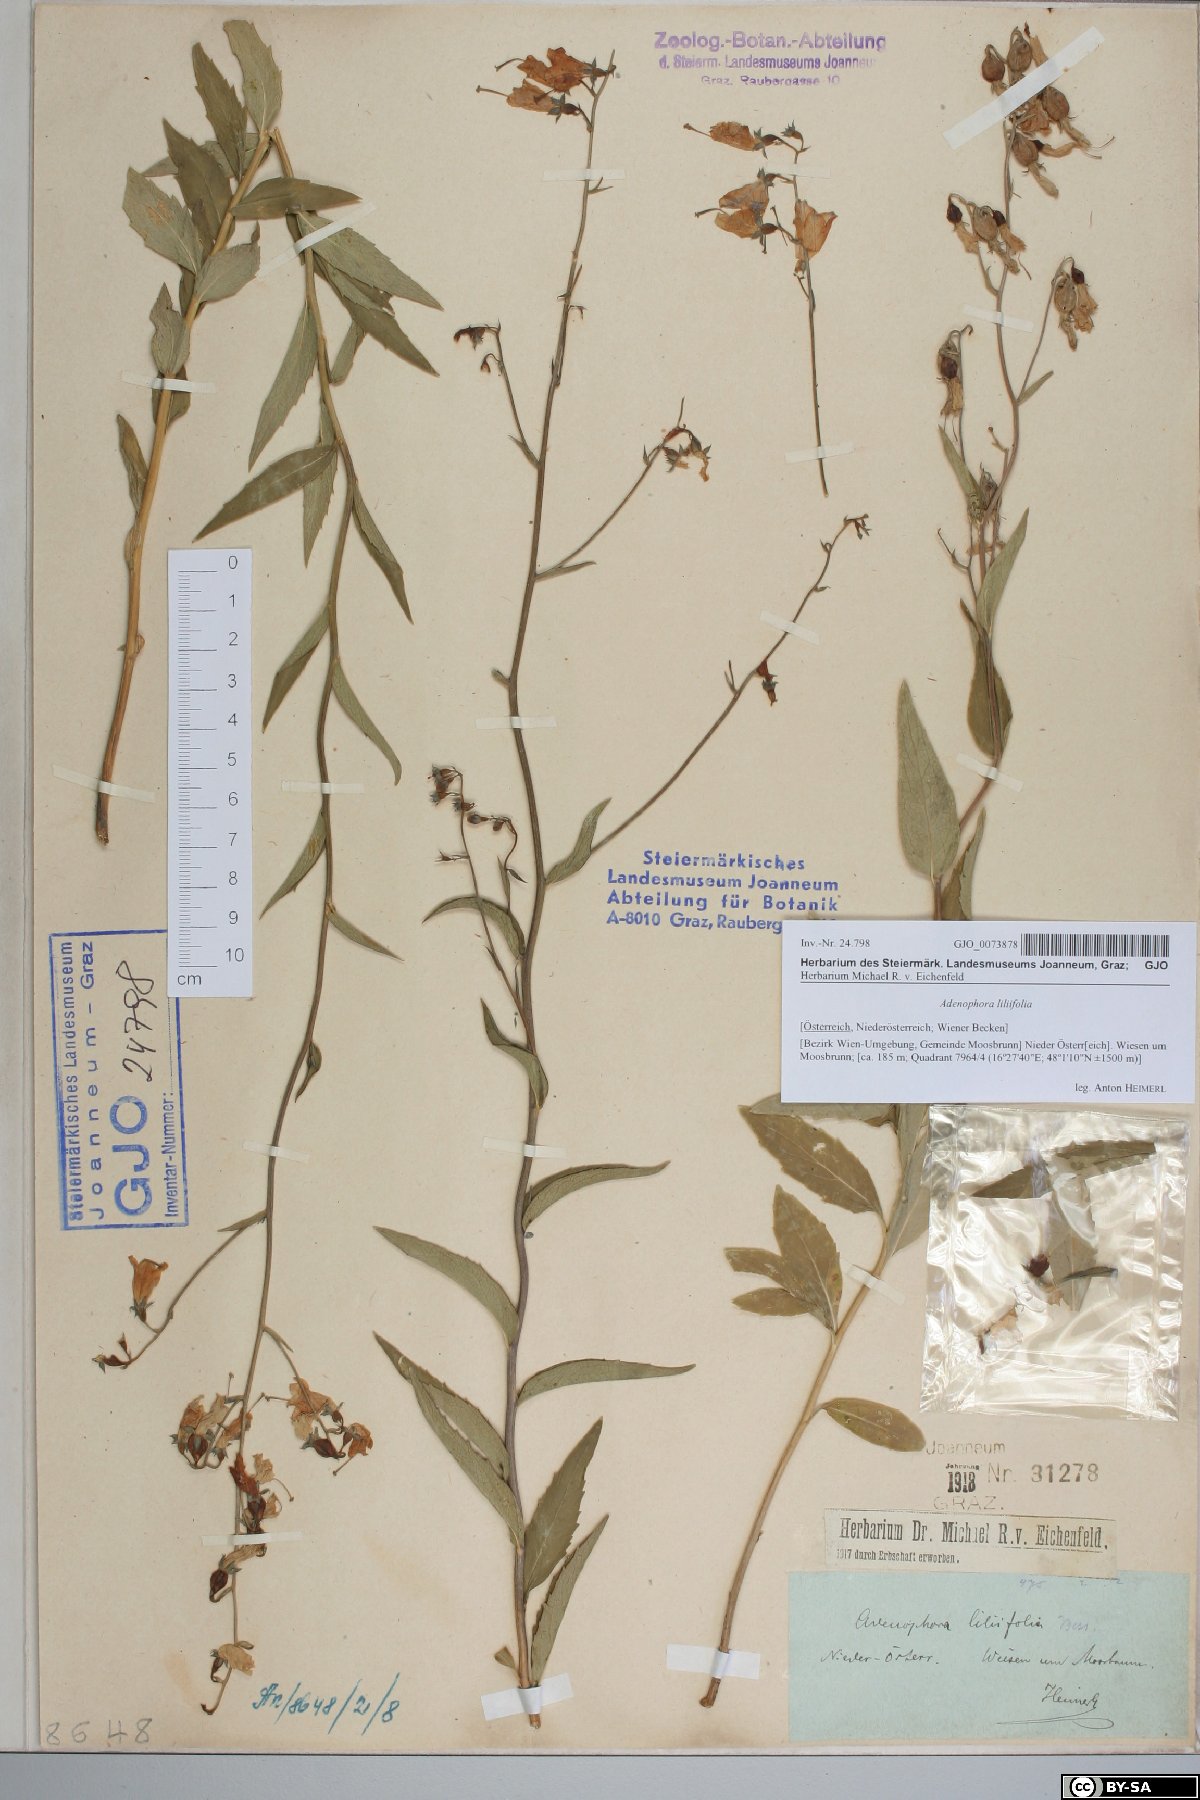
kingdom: Plantae
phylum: Tracheophyta
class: Magnoliopsida
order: Asterales
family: Campanulaceae
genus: Adenophora
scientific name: Adenophora liliifolia
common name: Lilyleaf ladybells
